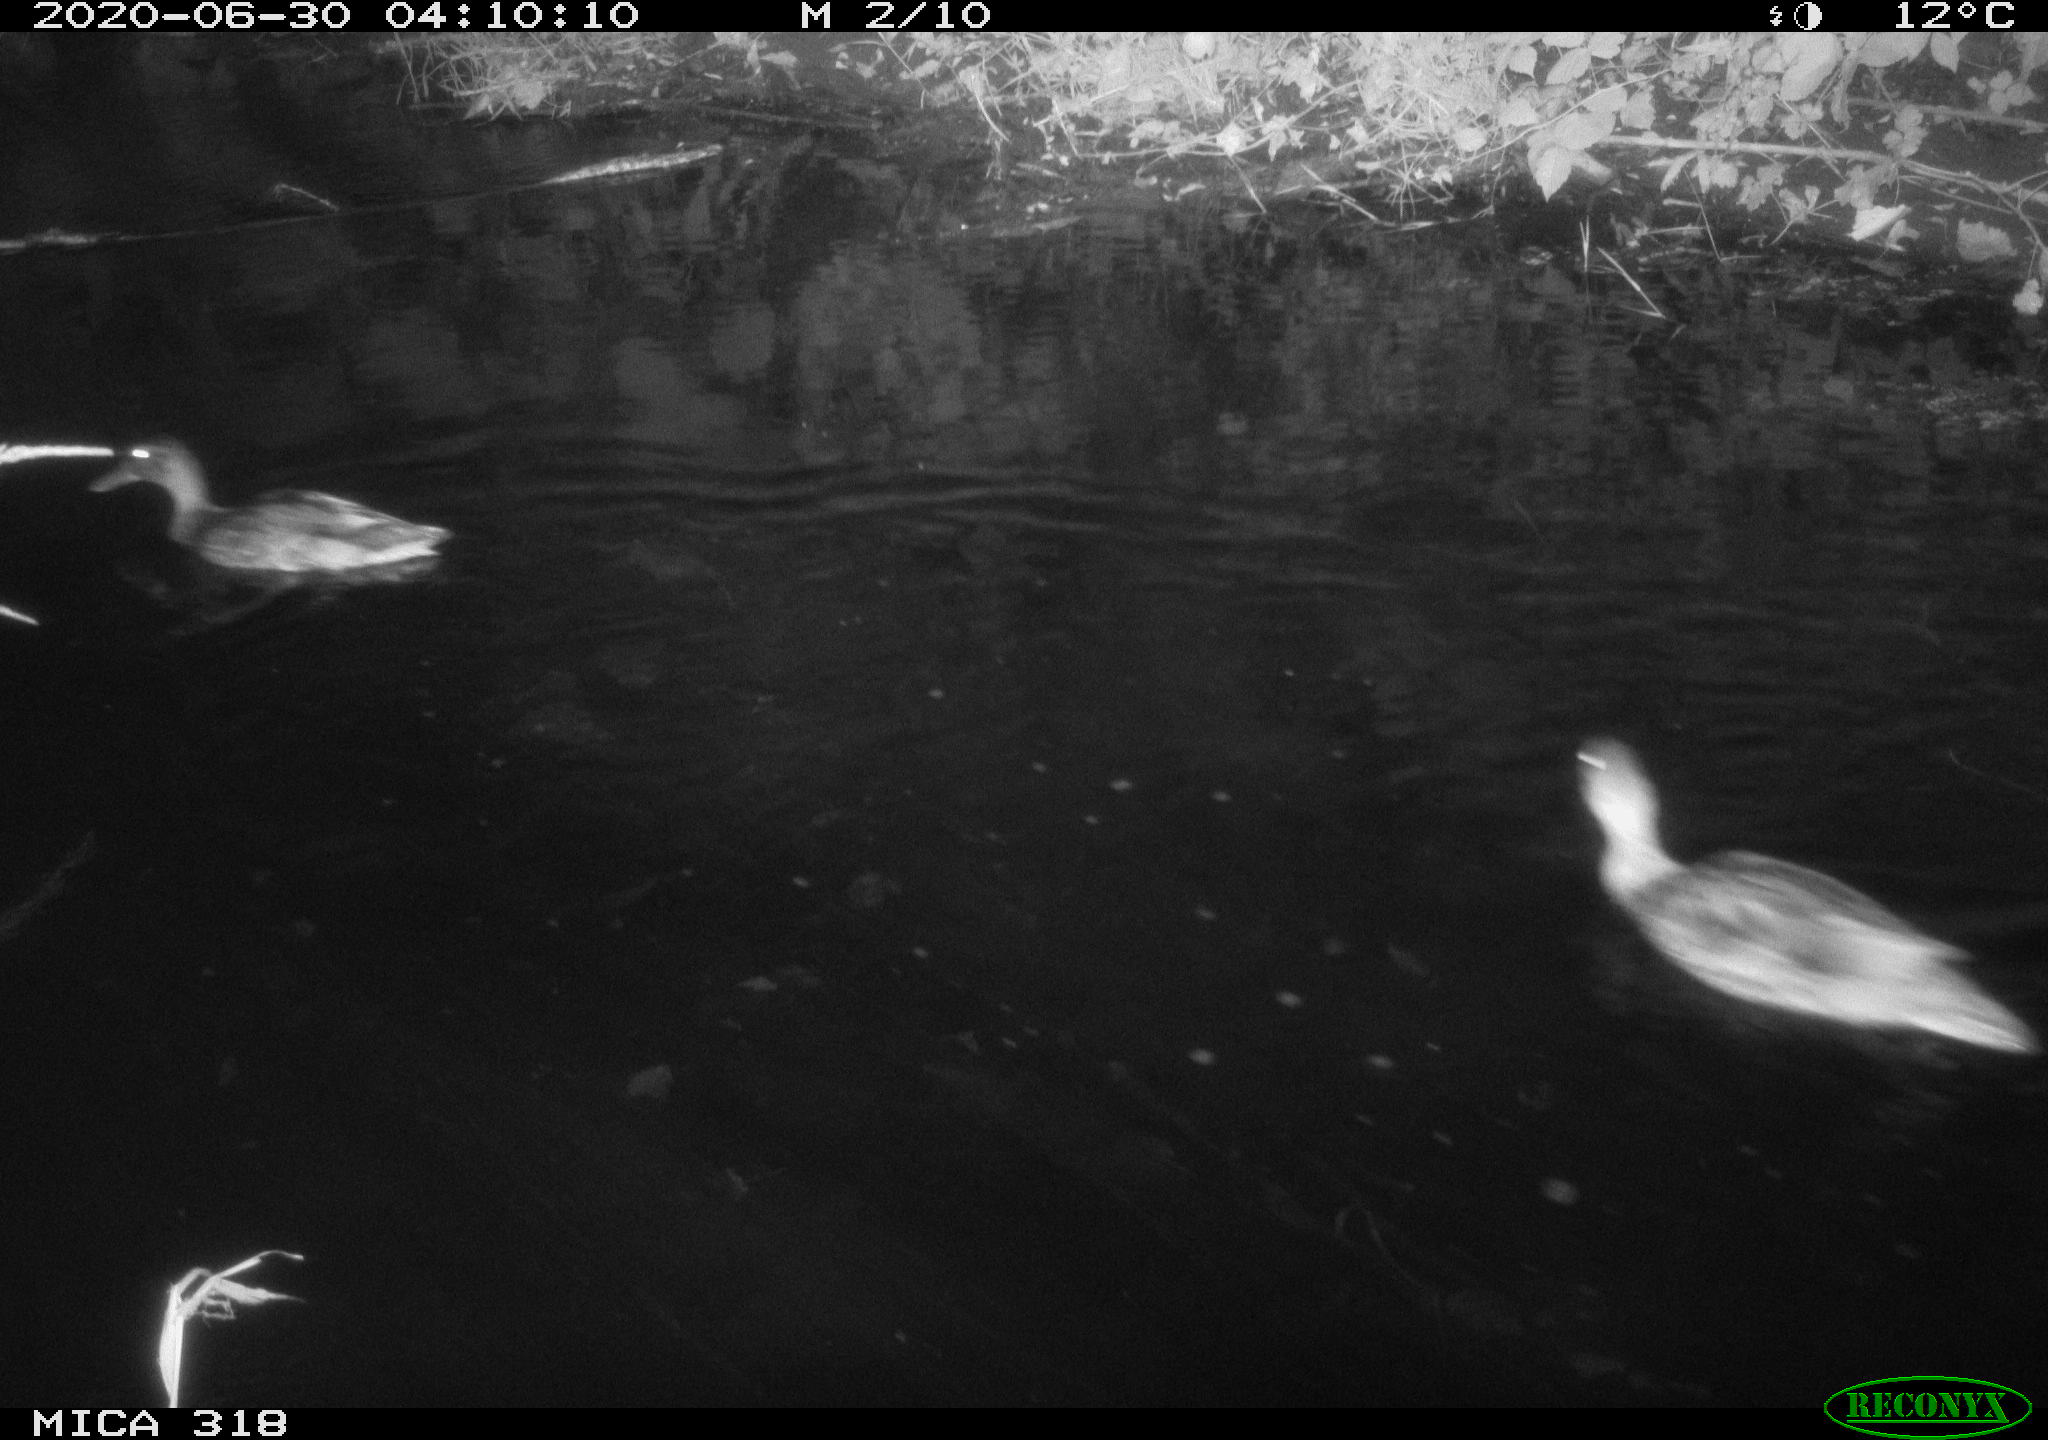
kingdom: Animalia
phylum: Chordata
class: Aves
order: Anseriformes
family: Anatidae
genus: Anas
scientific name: Anas platyrhynchos
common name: Mallard
